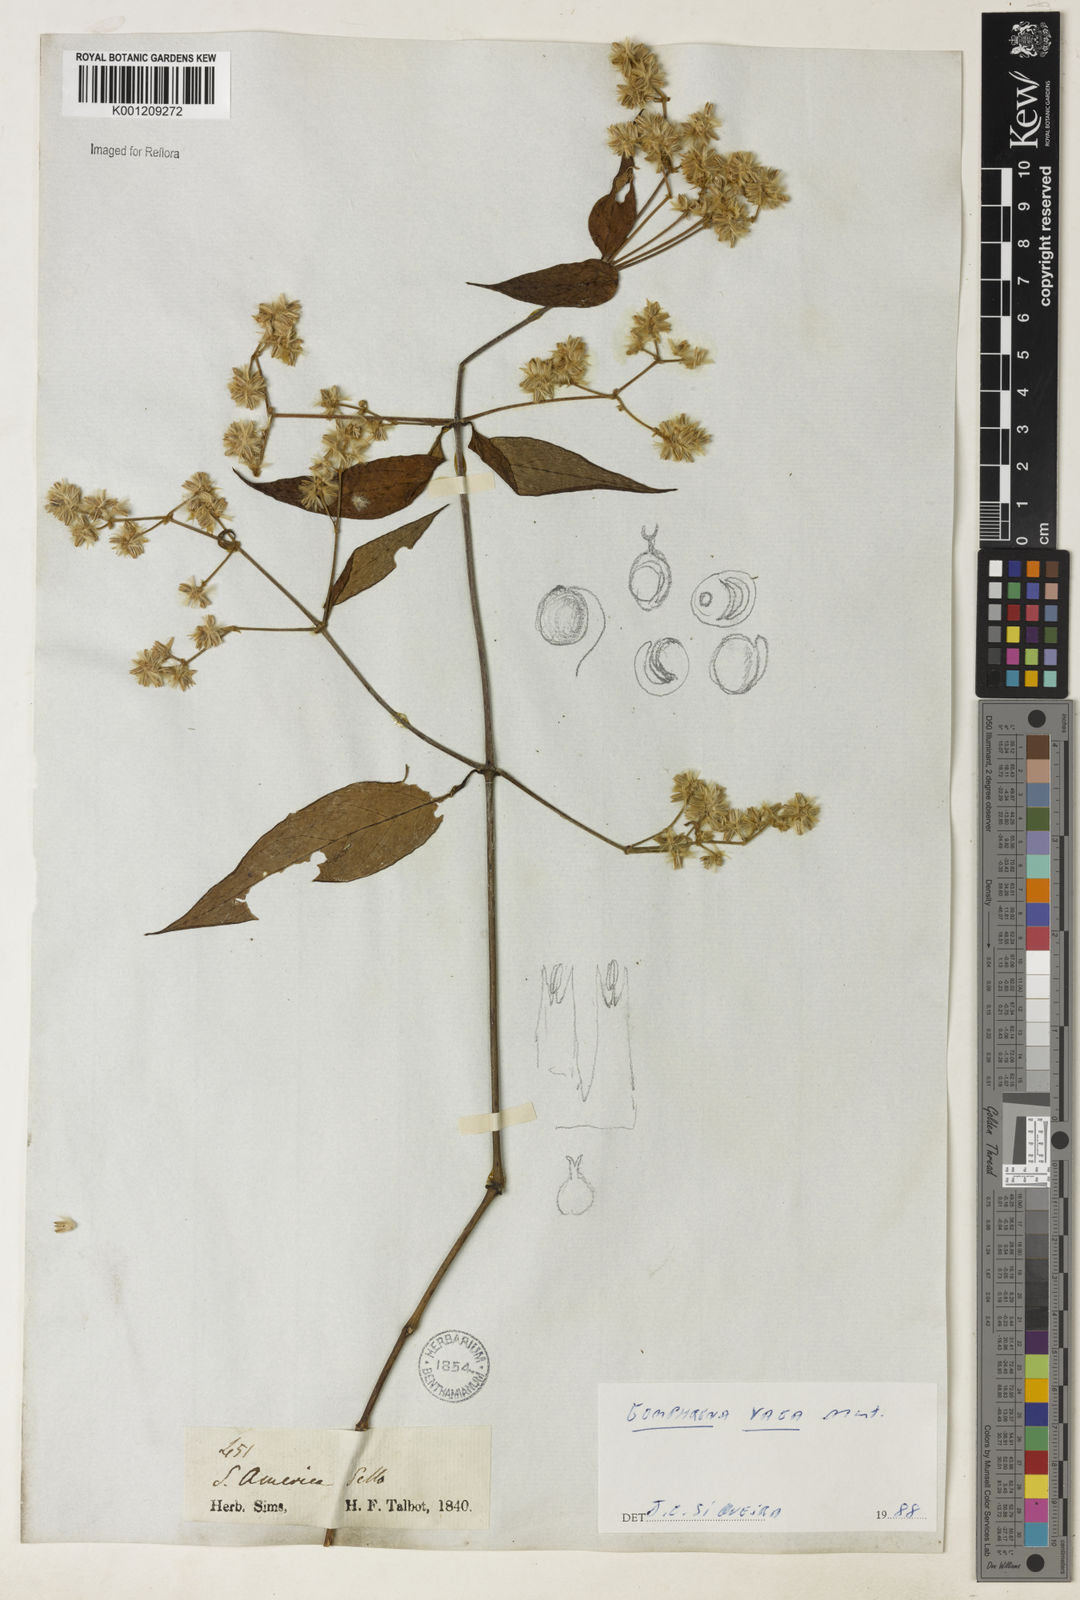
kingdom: Plantae
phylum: Tracheophyta
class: Magnoliopsida
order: Caryophyllales
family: Amaranthaceae
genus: Gomphrena
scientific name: Gomphrena vaga
